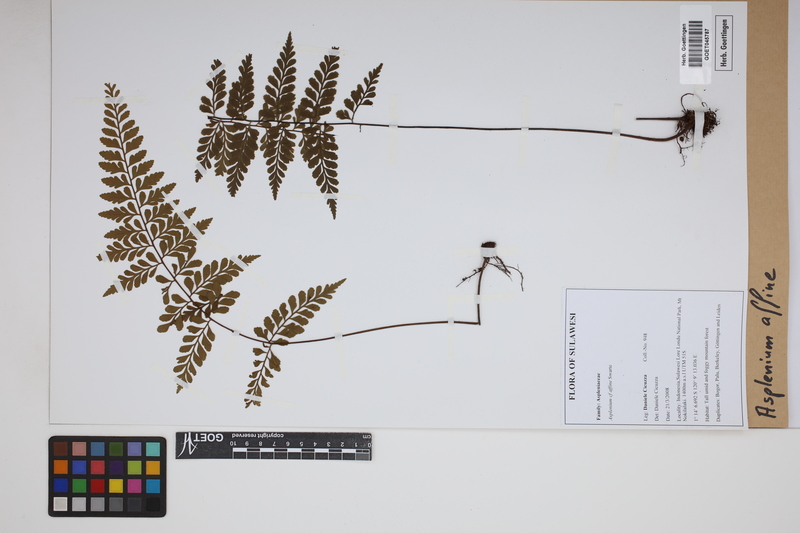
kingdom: Plantae
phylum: Tracheophyta
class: Polypodiopsida
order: Polypodiales
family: Aspleniaceae
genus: Asplenium
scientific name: Asplenium affine
